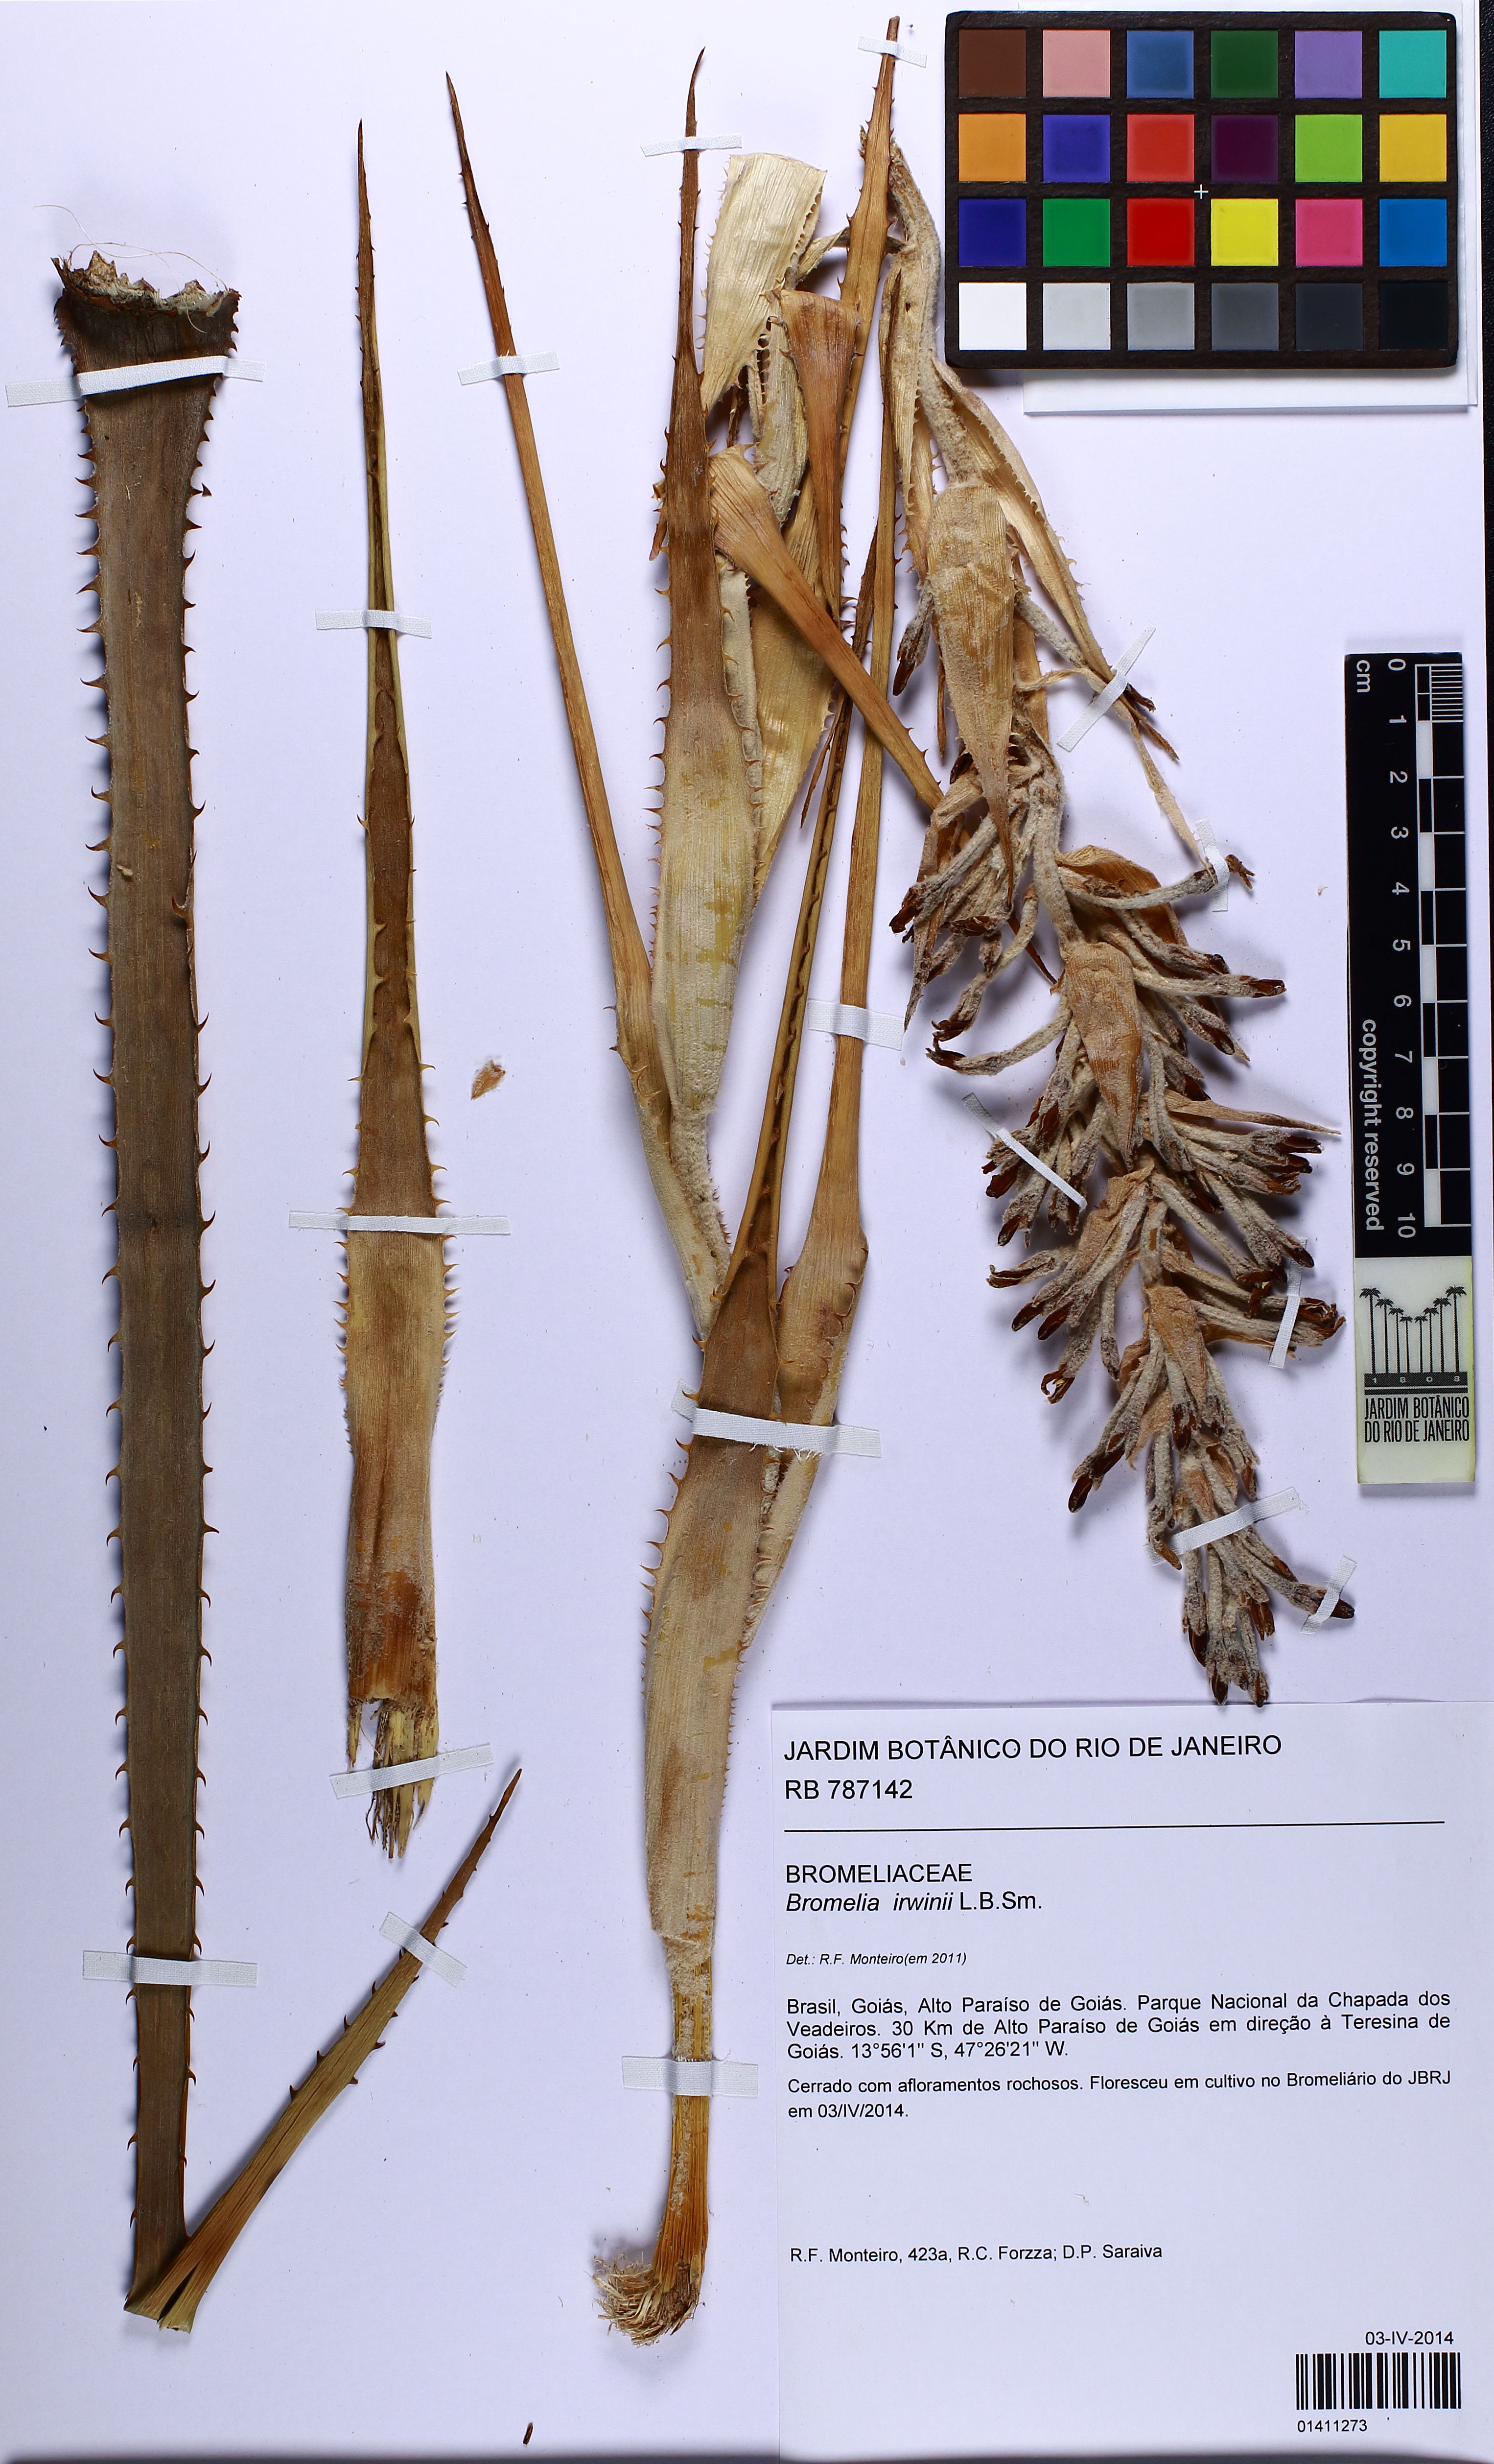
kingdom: Plantae
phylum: Tracheophyta
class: Liliopsida
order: Poales
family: Bromeliaceae
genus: Bromelia
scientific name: Bromelia irwinii
